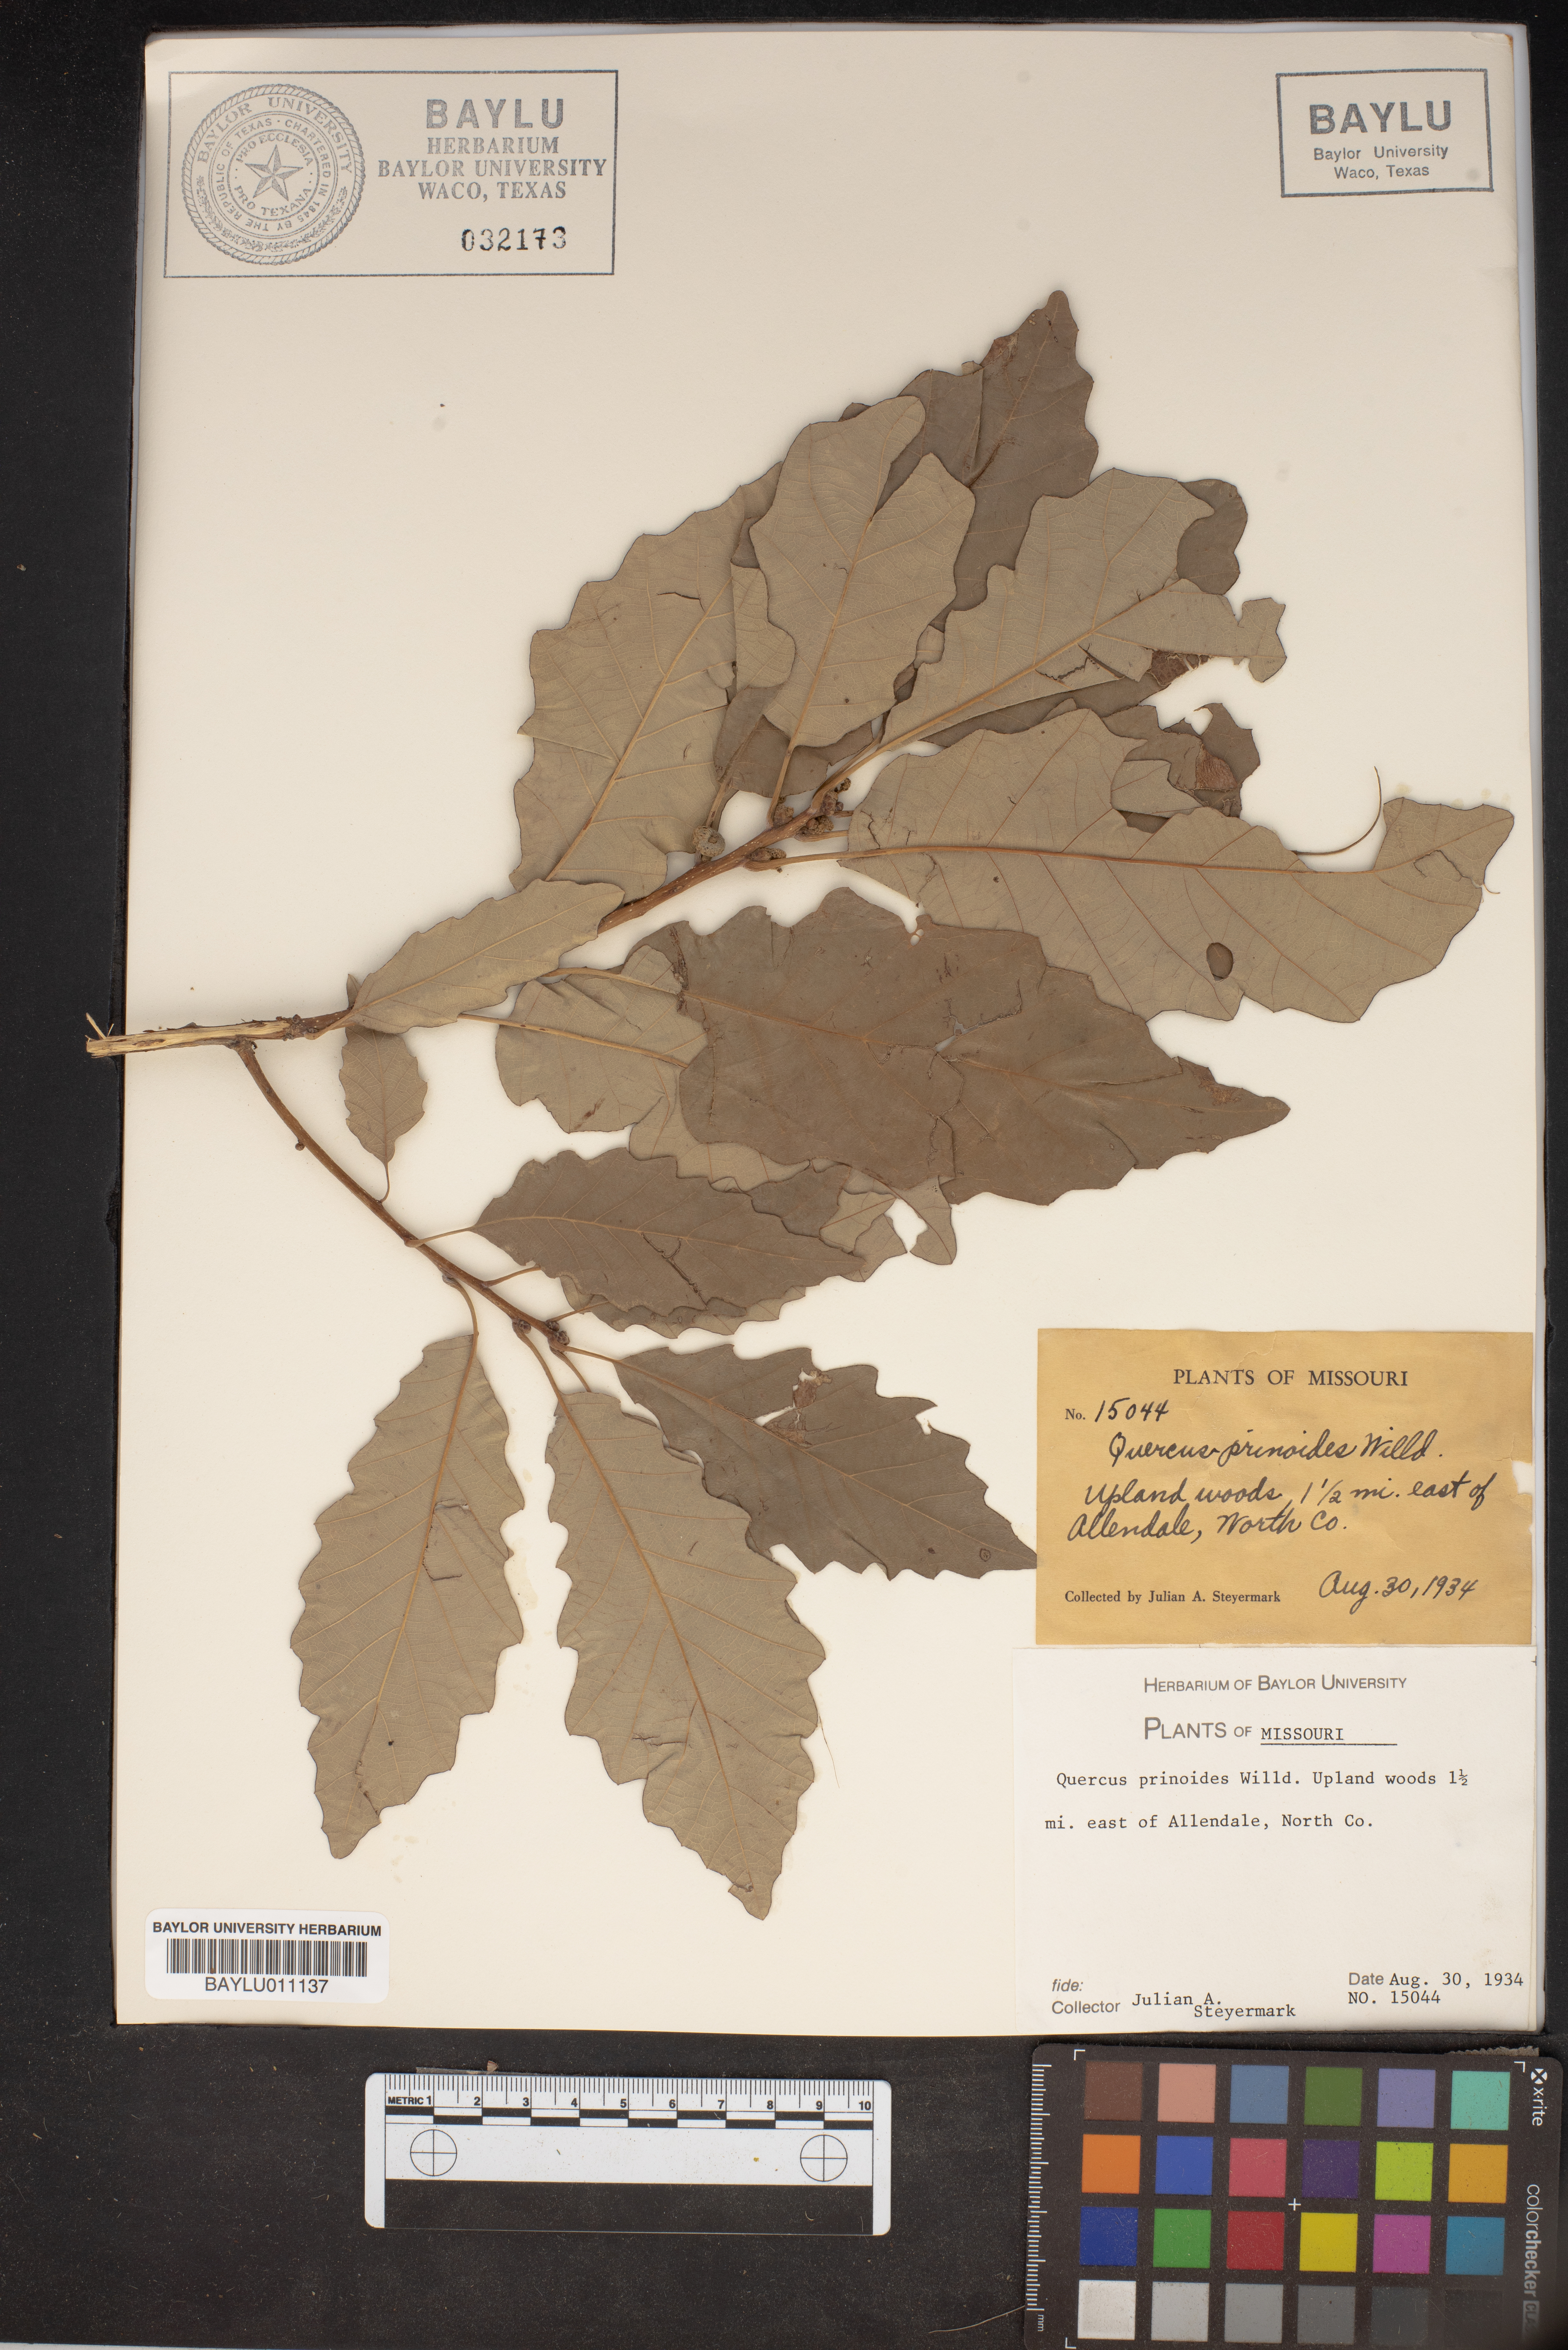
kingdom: Plantae
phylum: Tracheophyta
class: Magnoliopsida
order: Fagales
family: Fagaceae
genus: Quercus
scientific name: Quercus prinoides
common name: Dwarf chinkapin oak
